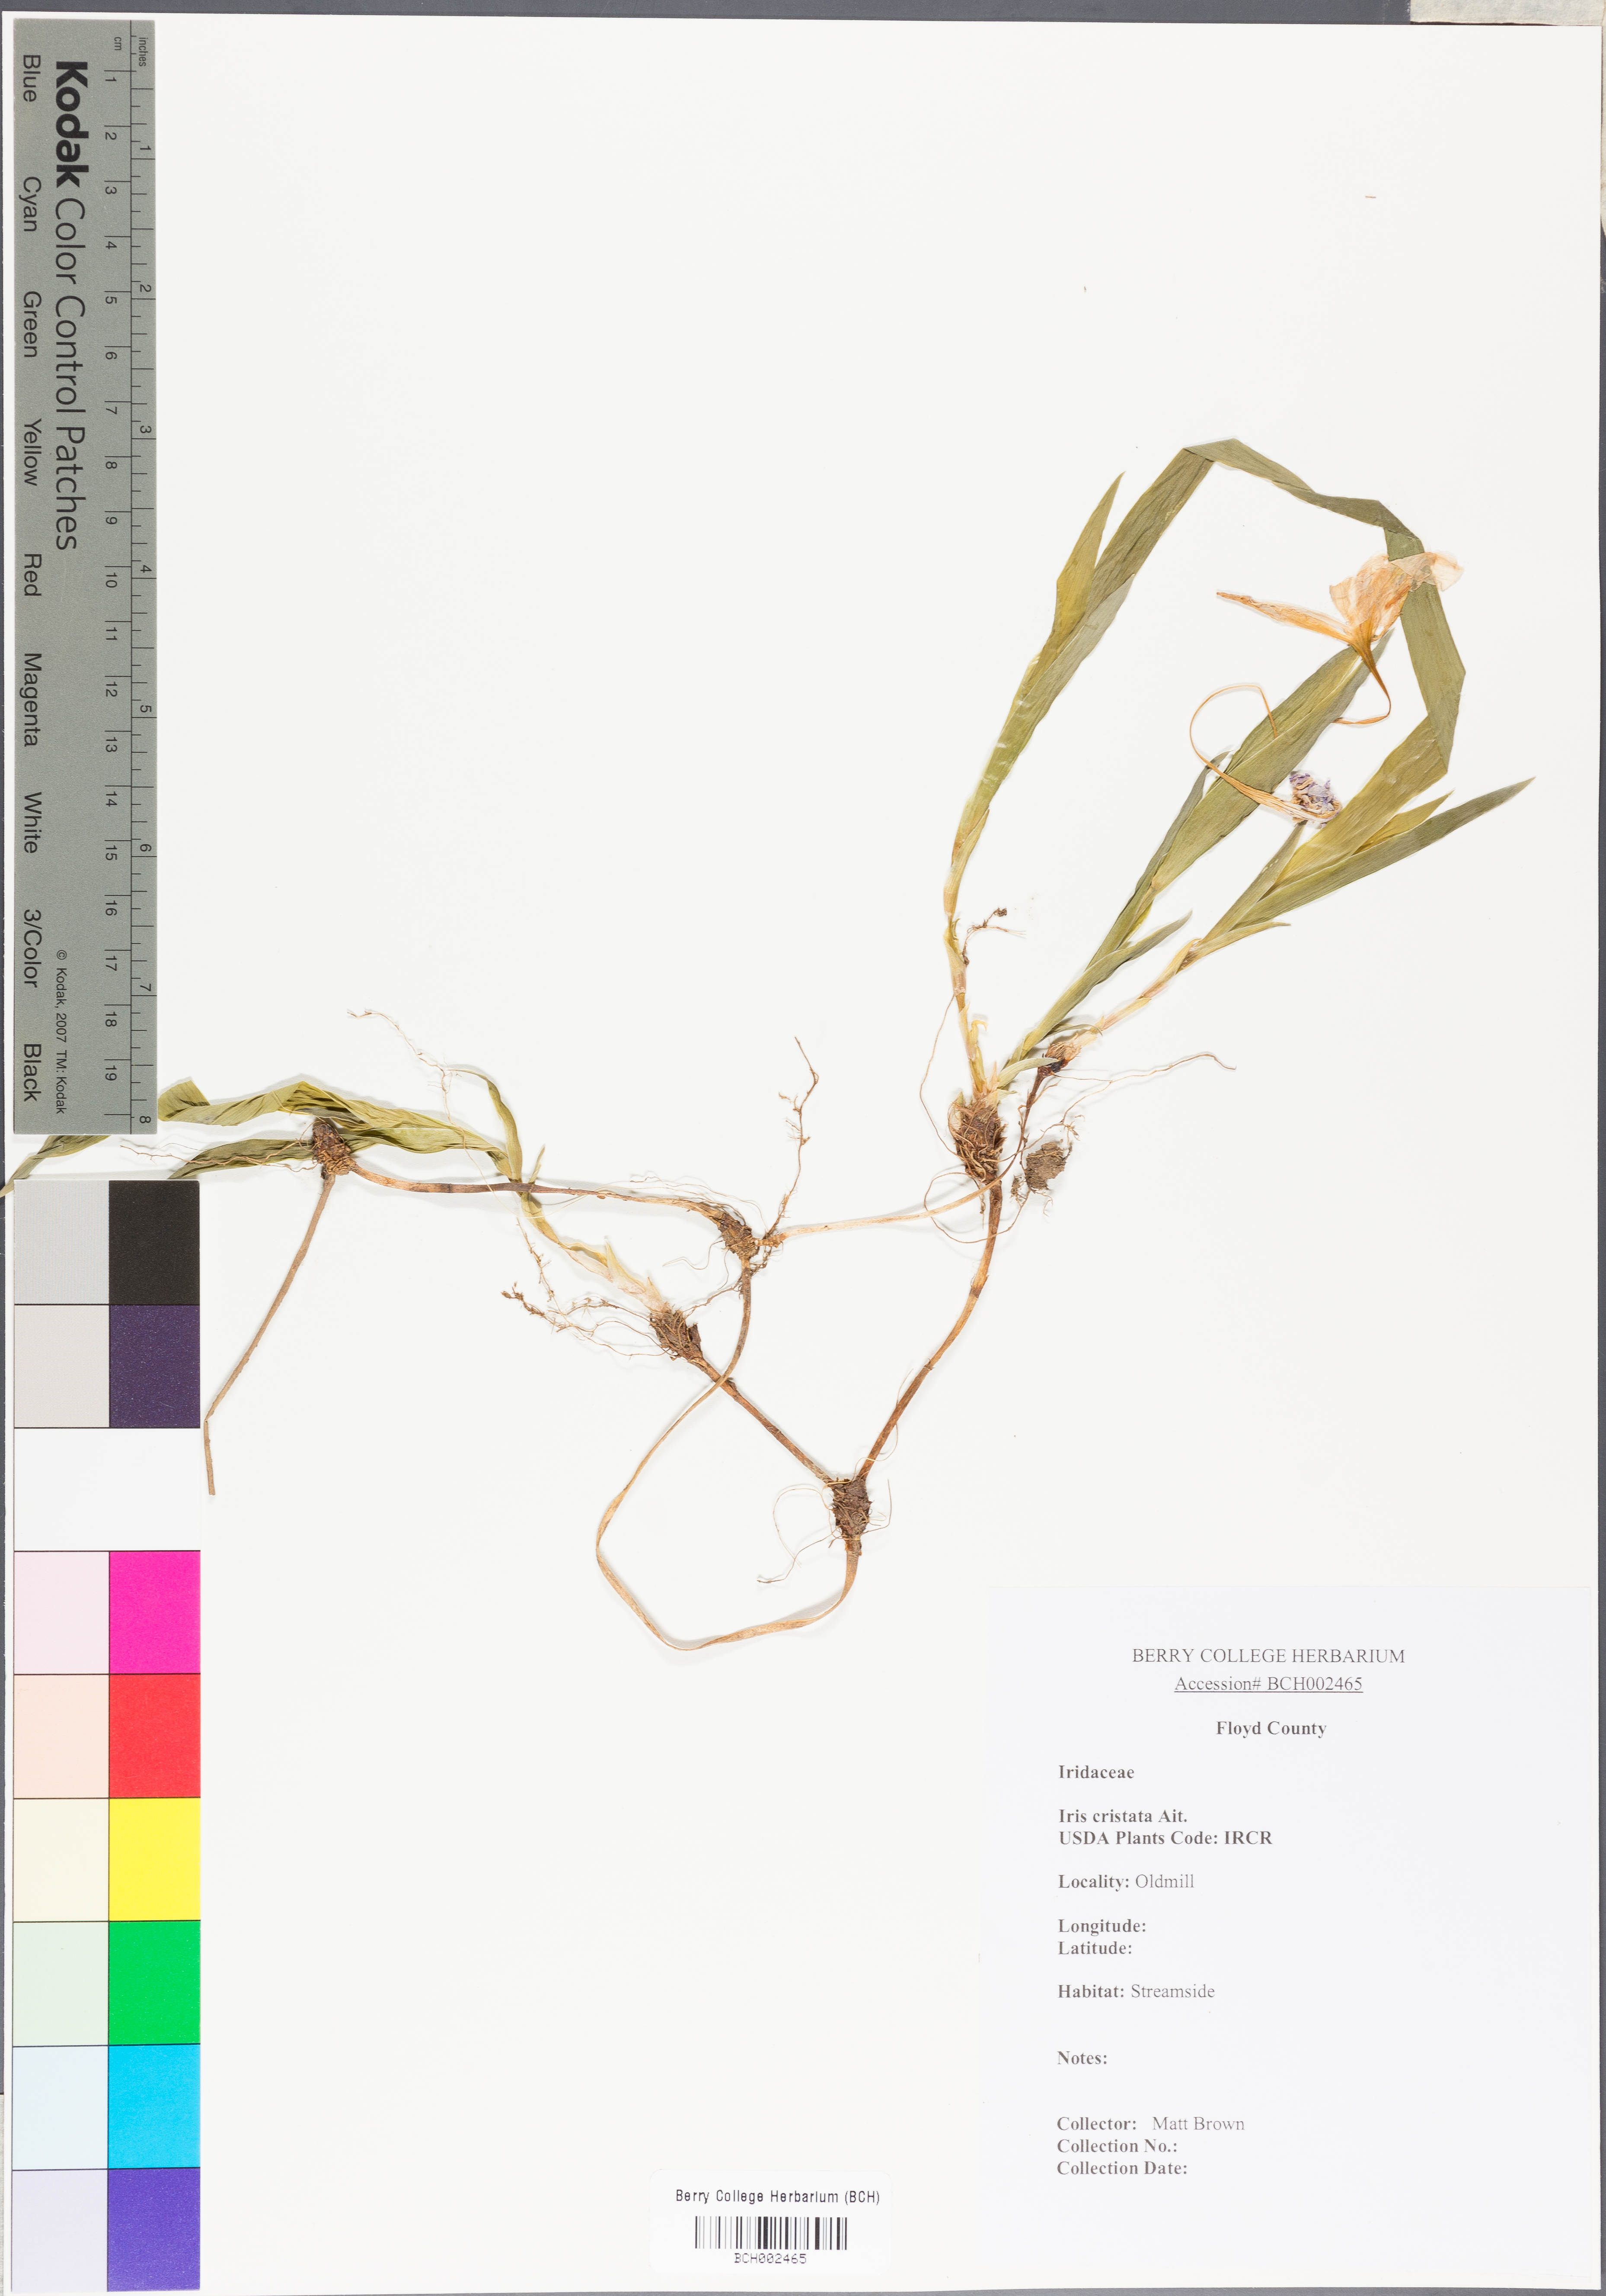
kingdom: Plantae
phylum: Tracheophyta
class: Liliopsida
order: Asparagales
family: Iridaceae
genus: Iris
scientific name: Iris cristata
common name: Crested iris
